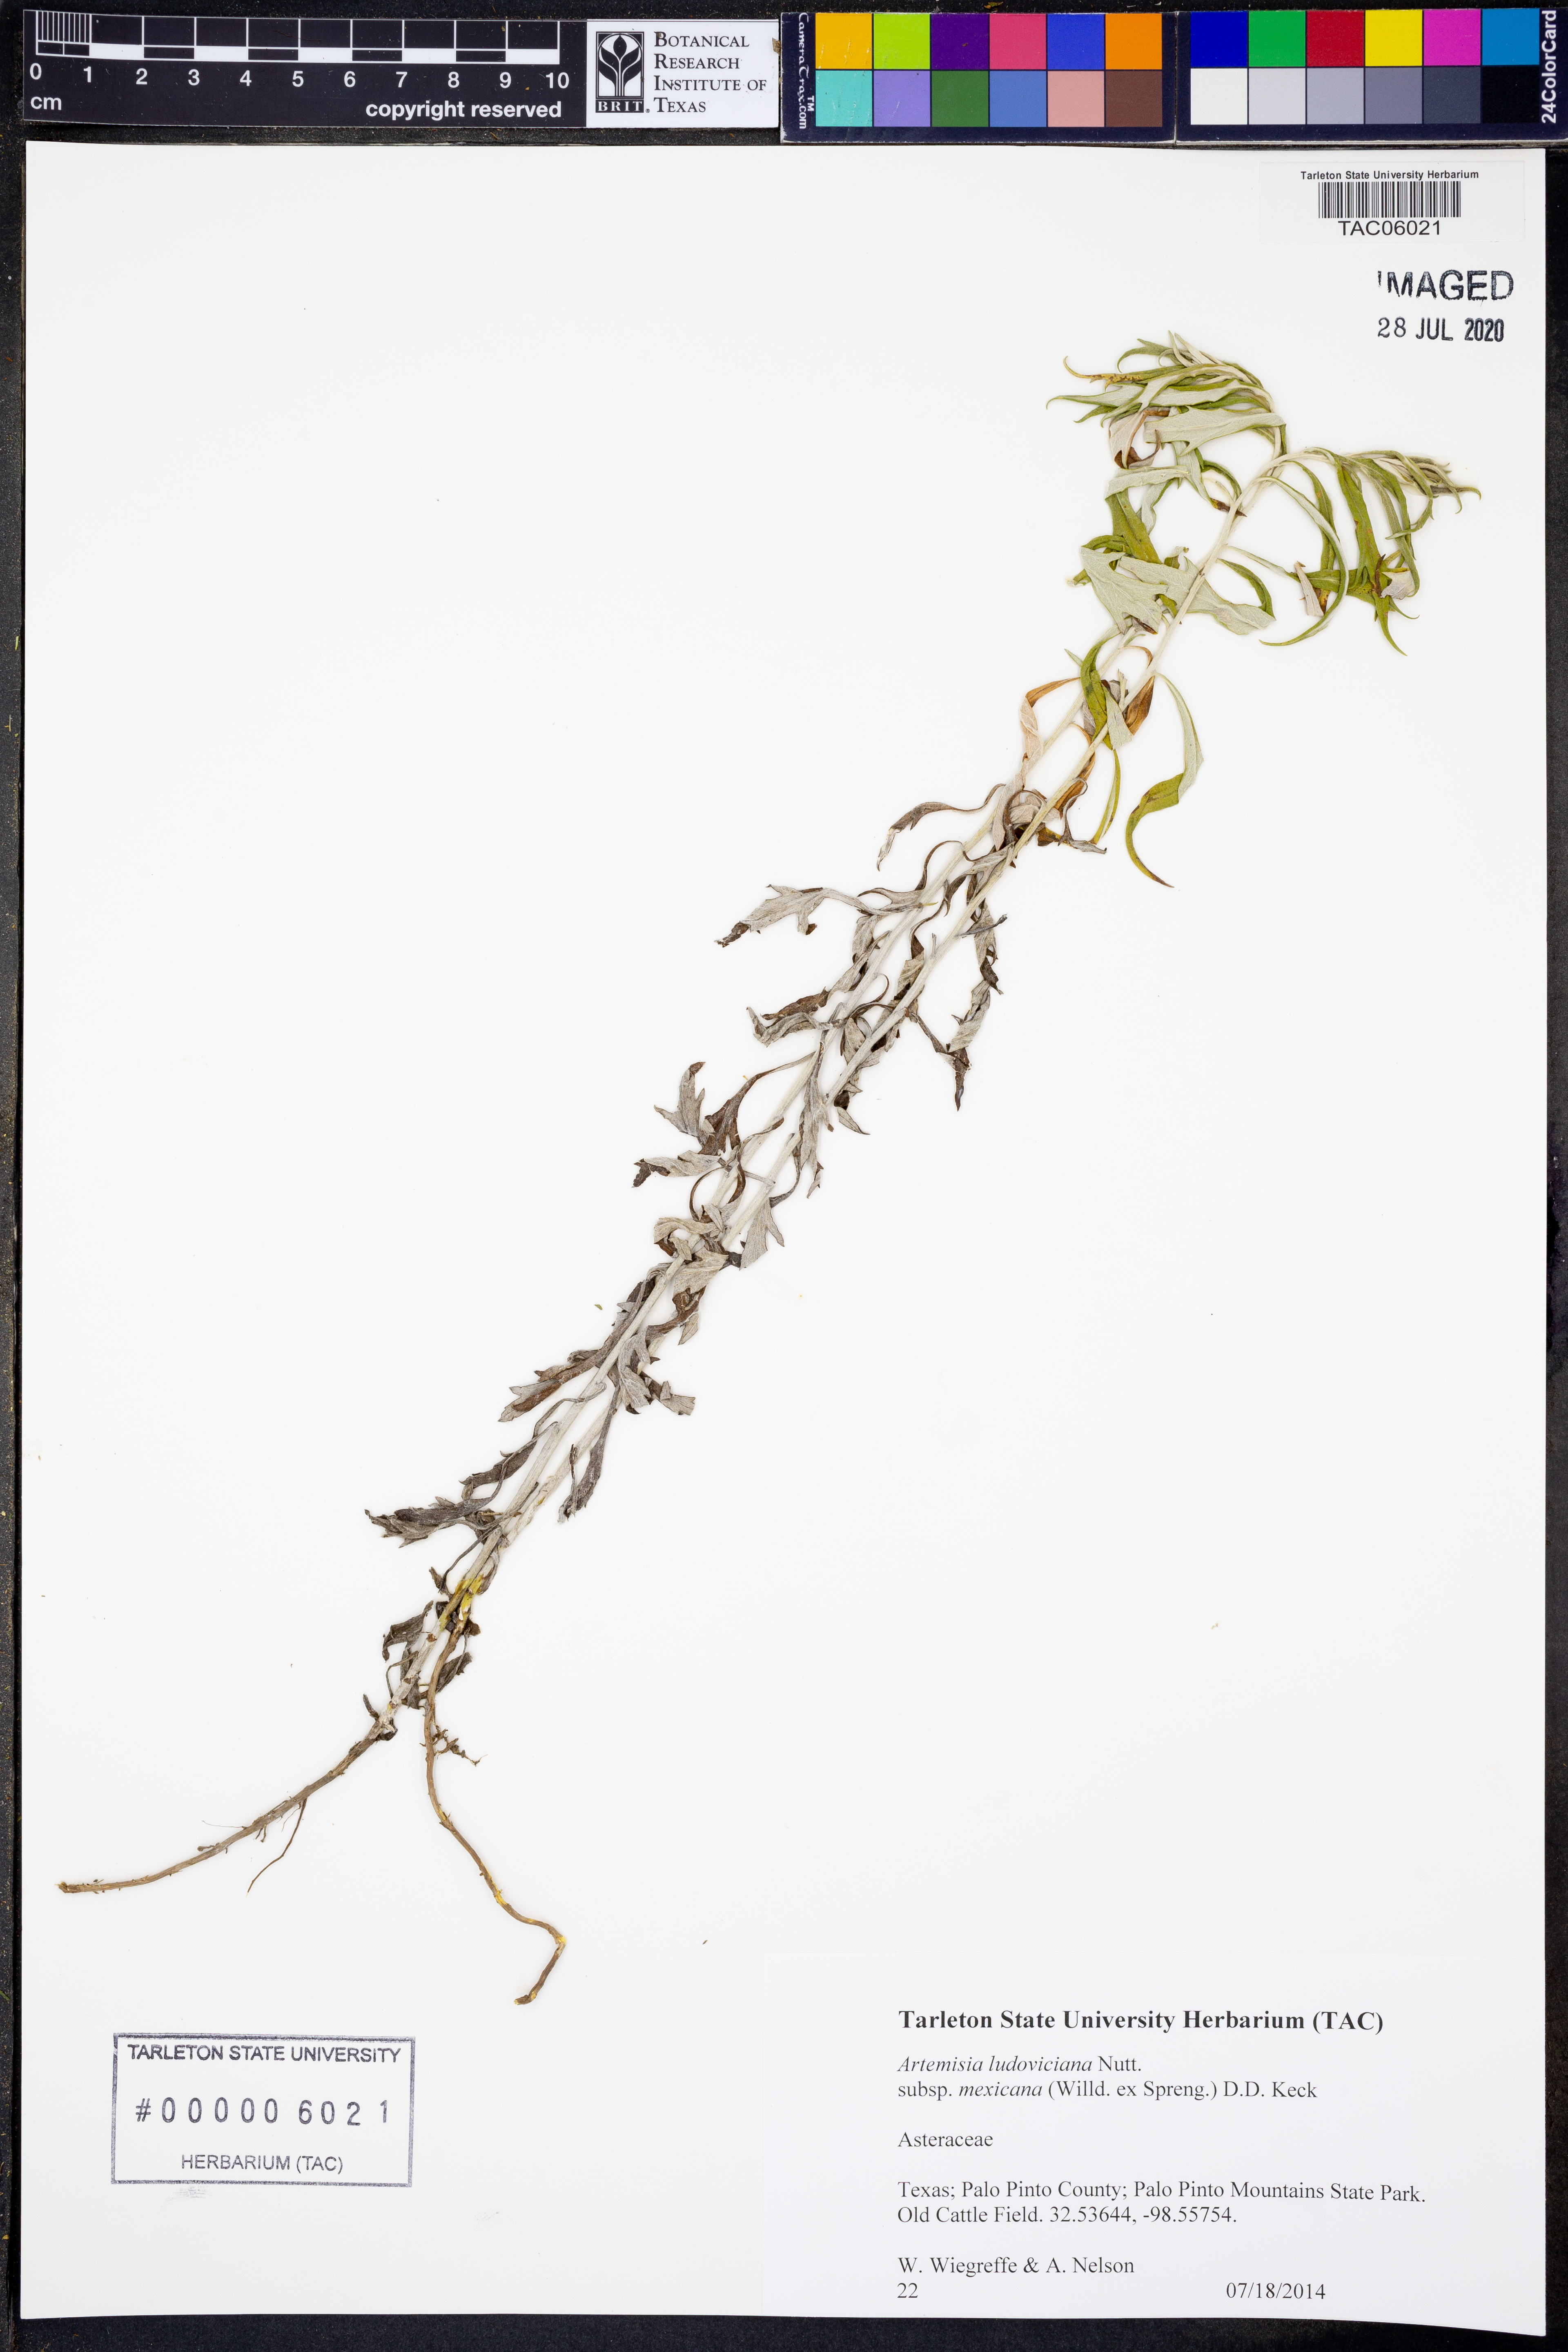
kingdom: Plantae
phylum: Tracheophyta
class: Magnoliopsida
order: Asterales
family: Asteraceae
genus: Artemisia
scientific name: Artemisia ludoviciana
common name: Western mugwort
